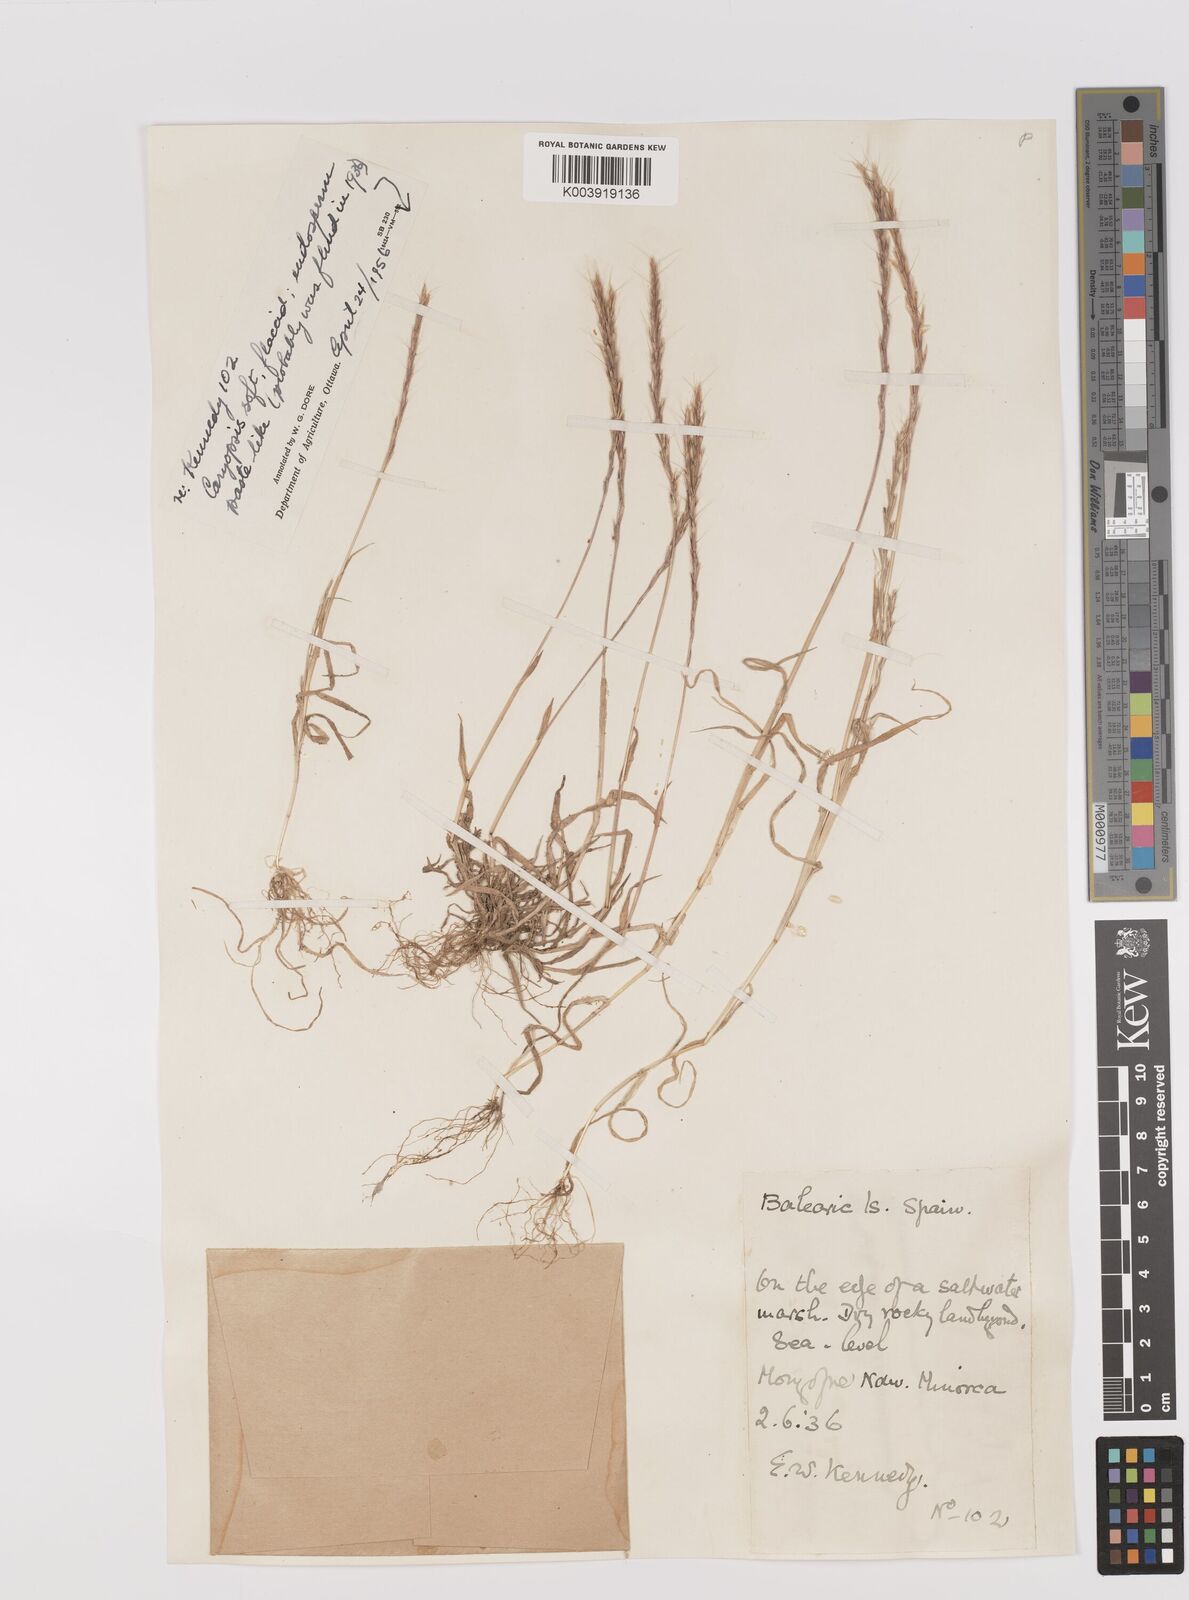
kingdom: Plantae
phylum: Tracheophyta
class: Liliopsida
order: Poales
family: Poaceae
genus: Gaudinia
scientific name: Gaudinia fragilis
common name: French oat-grass
